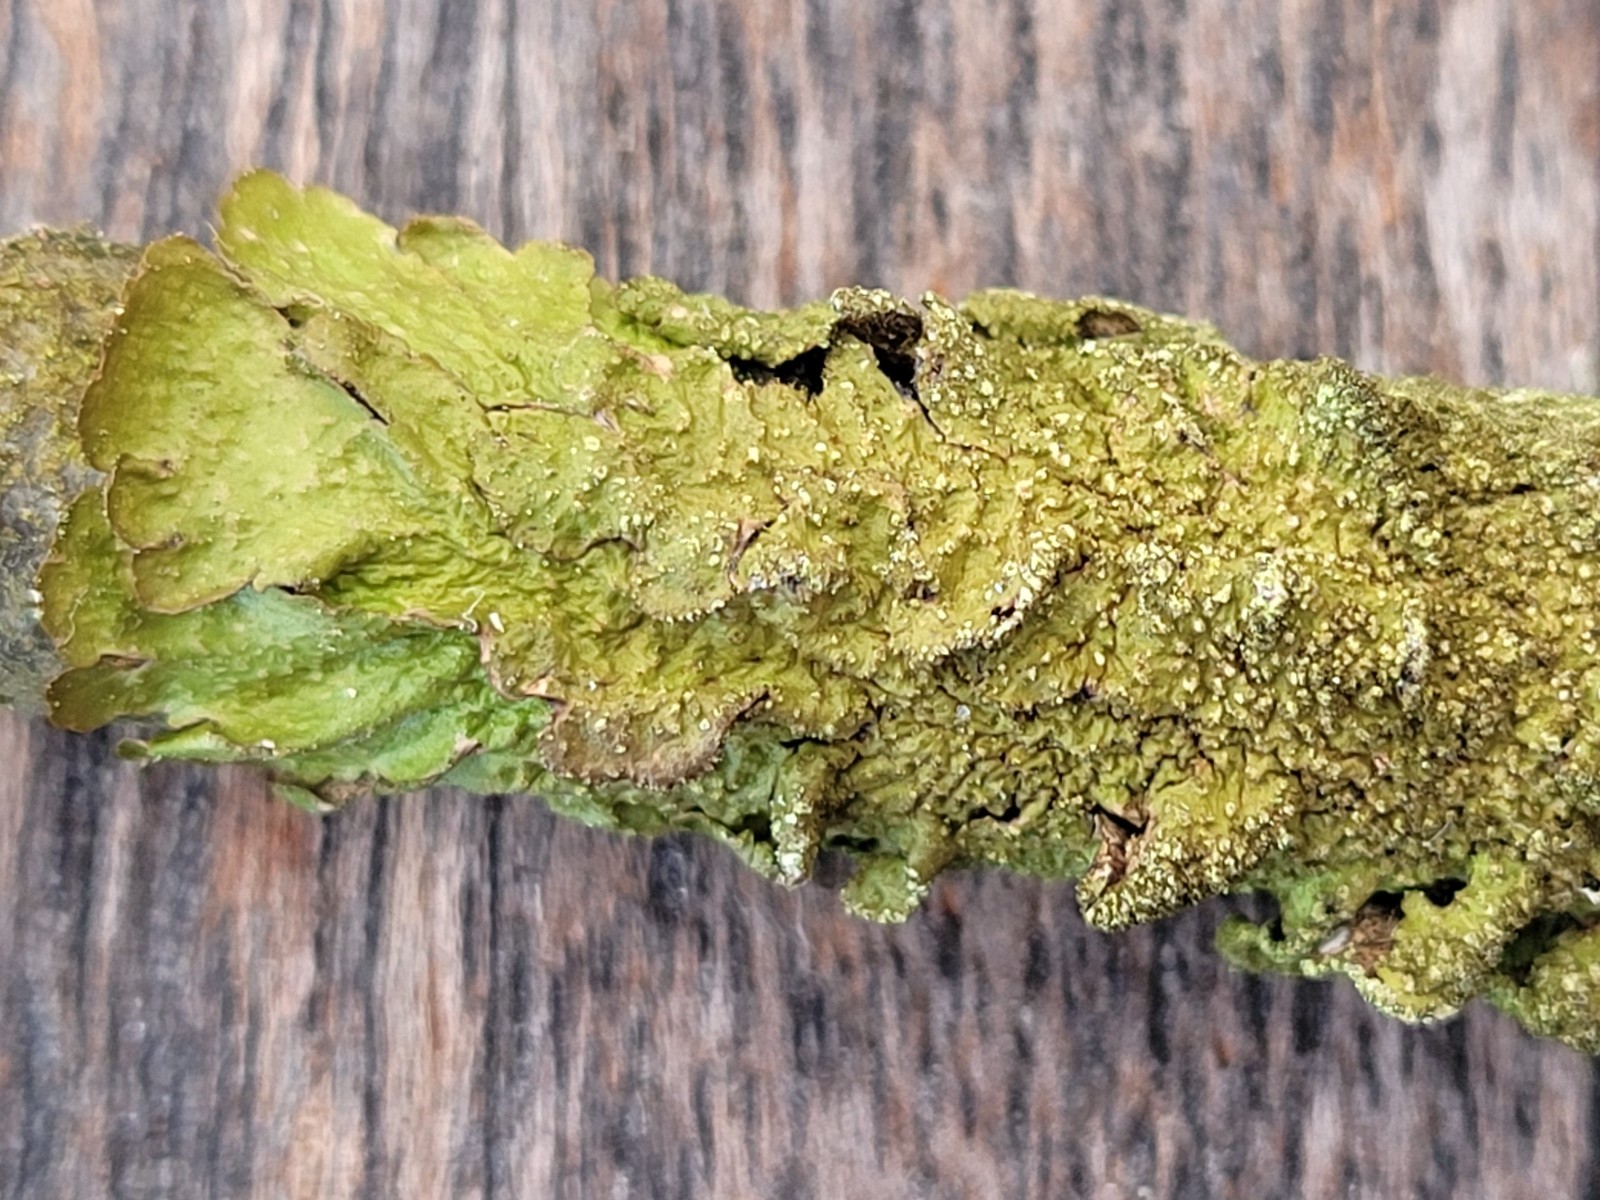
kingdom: Fungi
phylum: Ascomycota
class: Lecanoromycetes
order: Lecanorales
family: Parmeliaceae
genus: Melanelixia
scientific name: Melanelixia subaurifera
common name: guldpudret skållav
